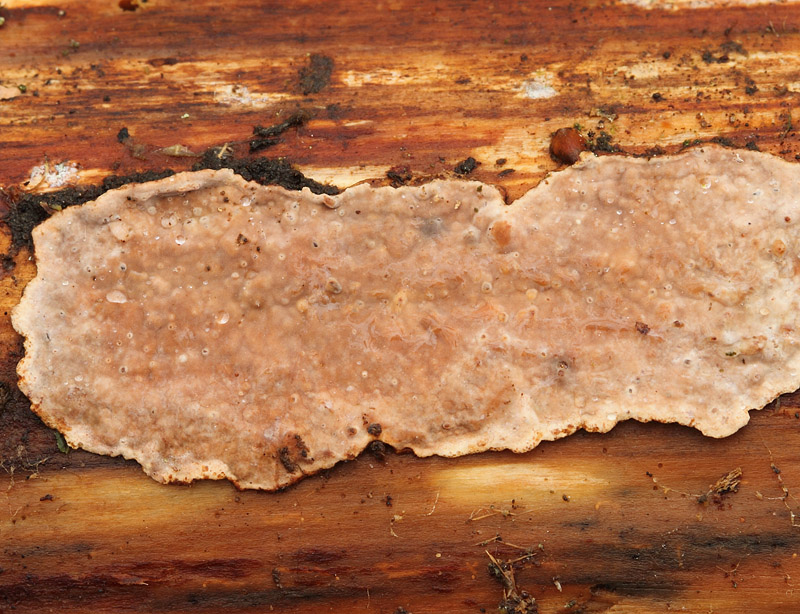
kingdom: Fungi
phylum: Basidiomycota
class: Agaricomycetes
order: Russulales
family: Echinodontiaceae
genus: Amylostereum
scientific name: Amylostereum chailletii
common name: gran-lædersvamp
